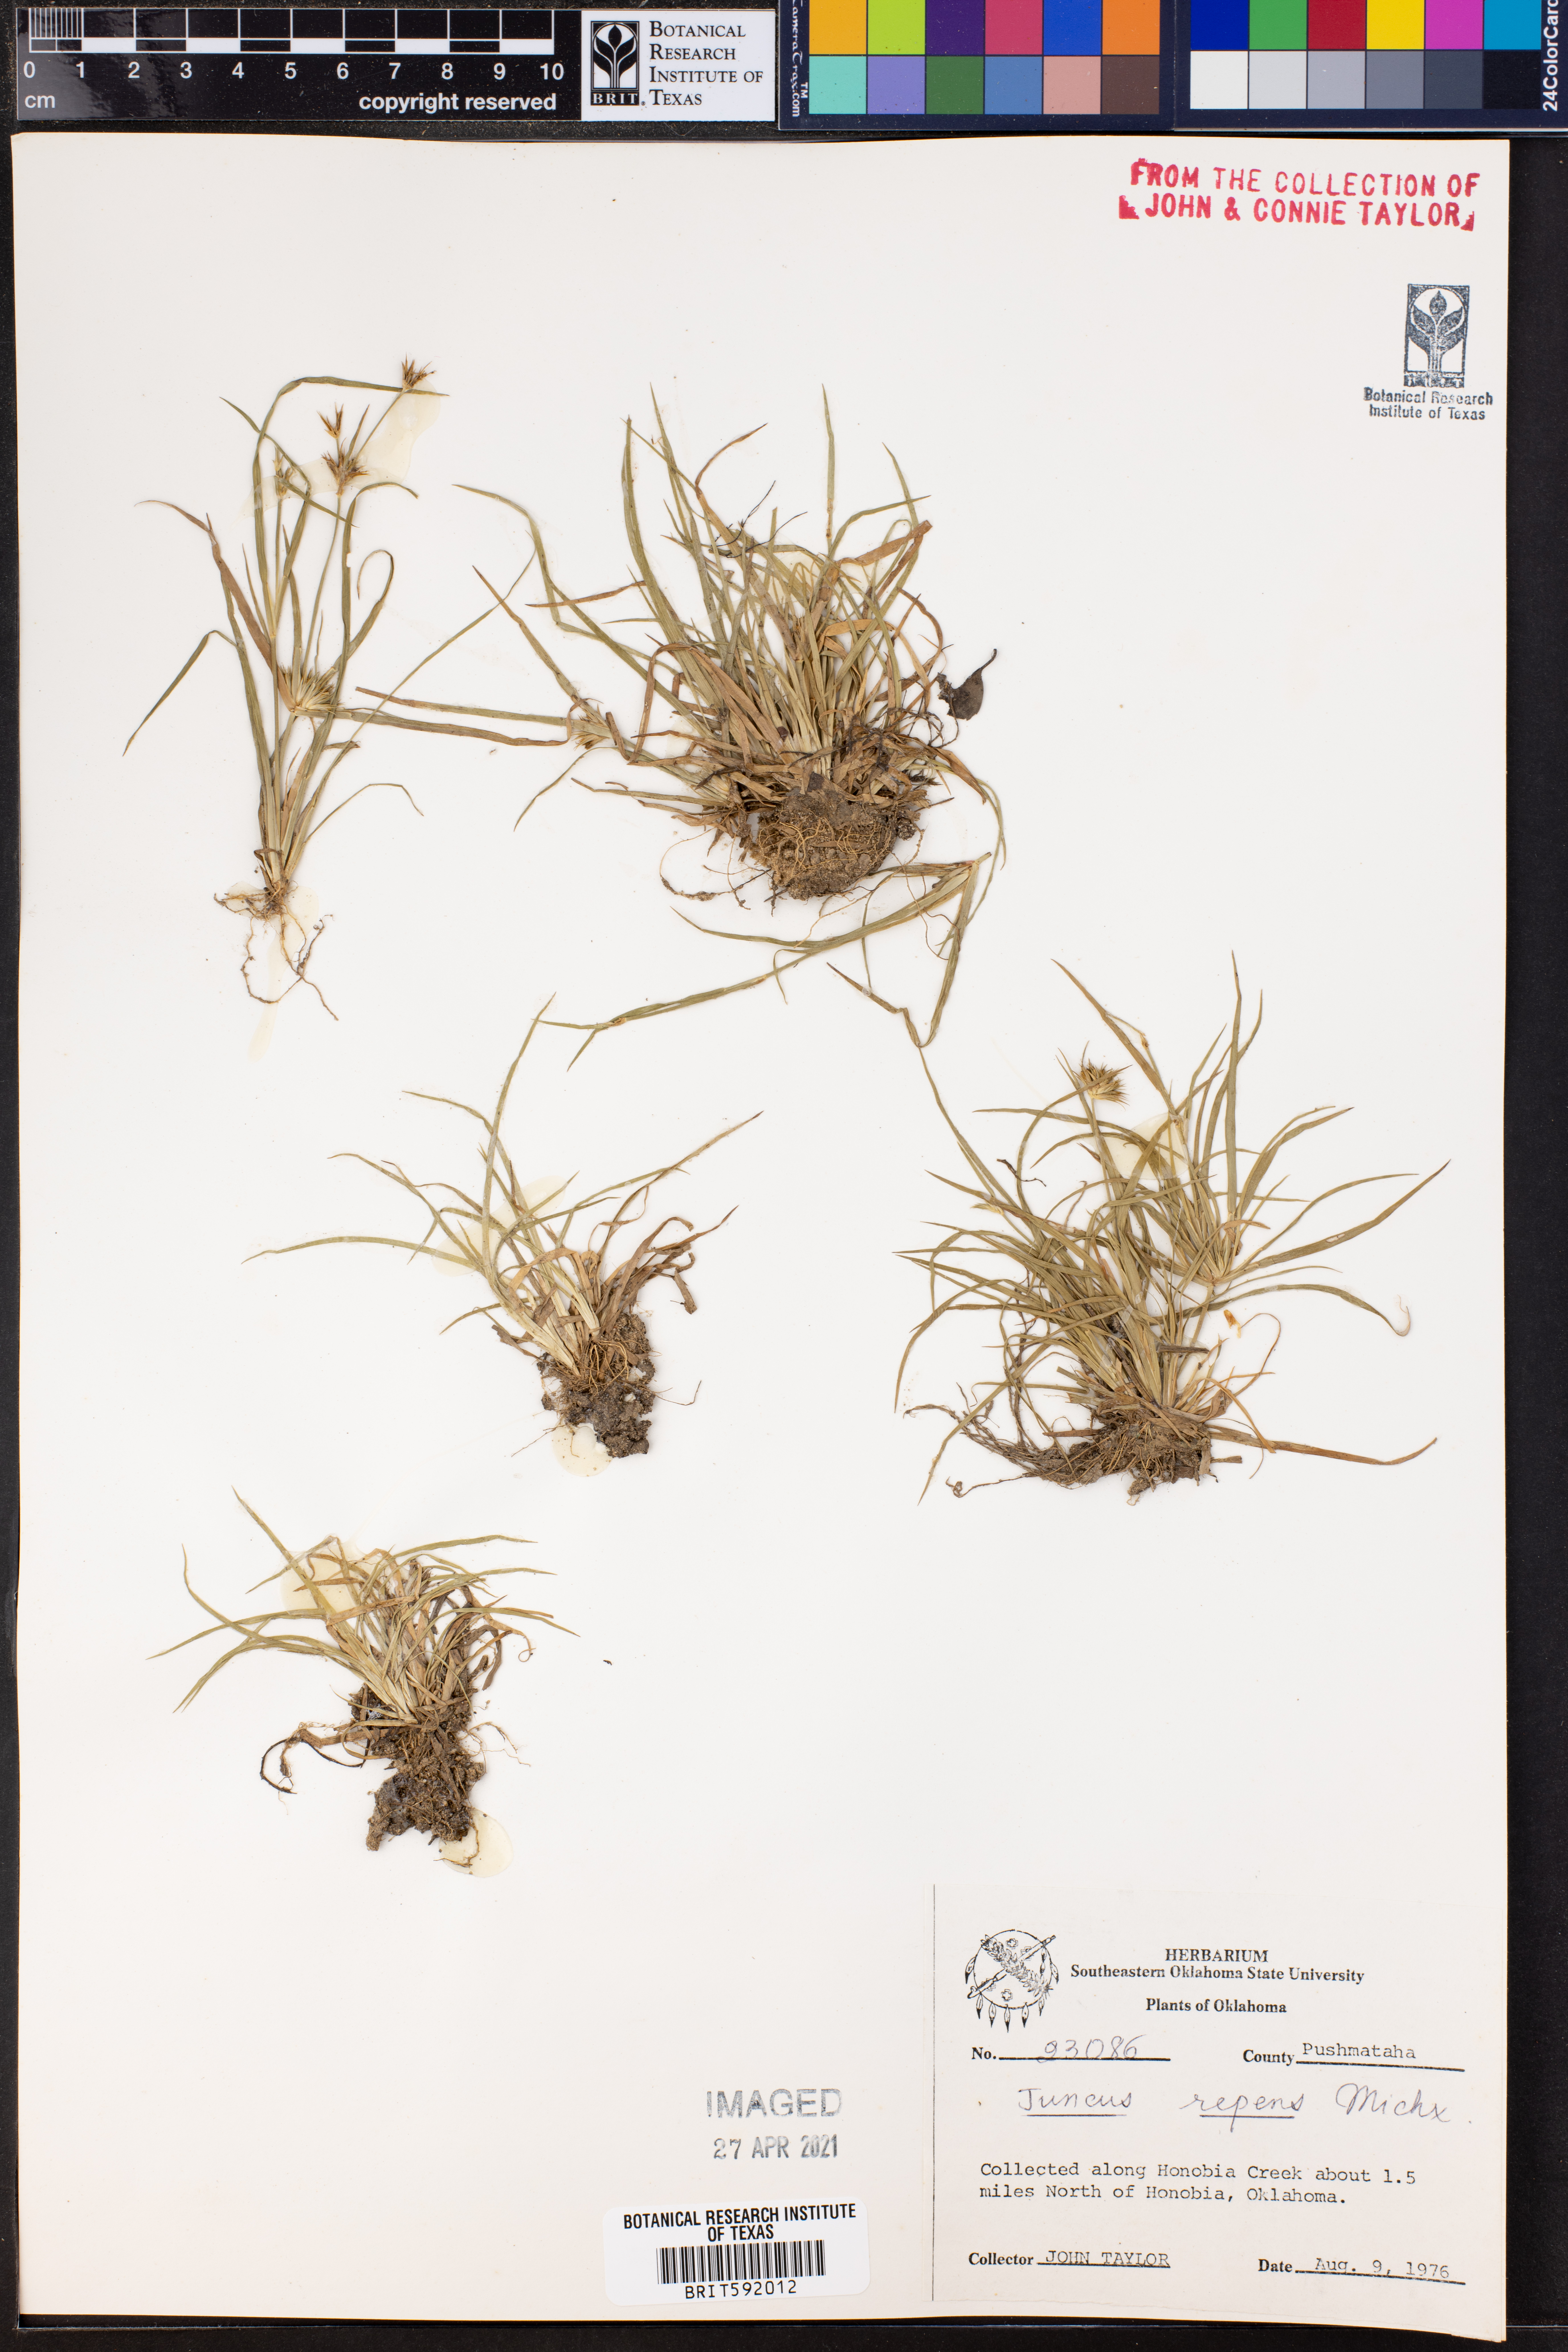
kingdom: Plantae
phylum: Tracheophyta
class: Liliopsida
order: Poales
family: Juncaceae
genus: Juncus
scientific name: Juncus repens
